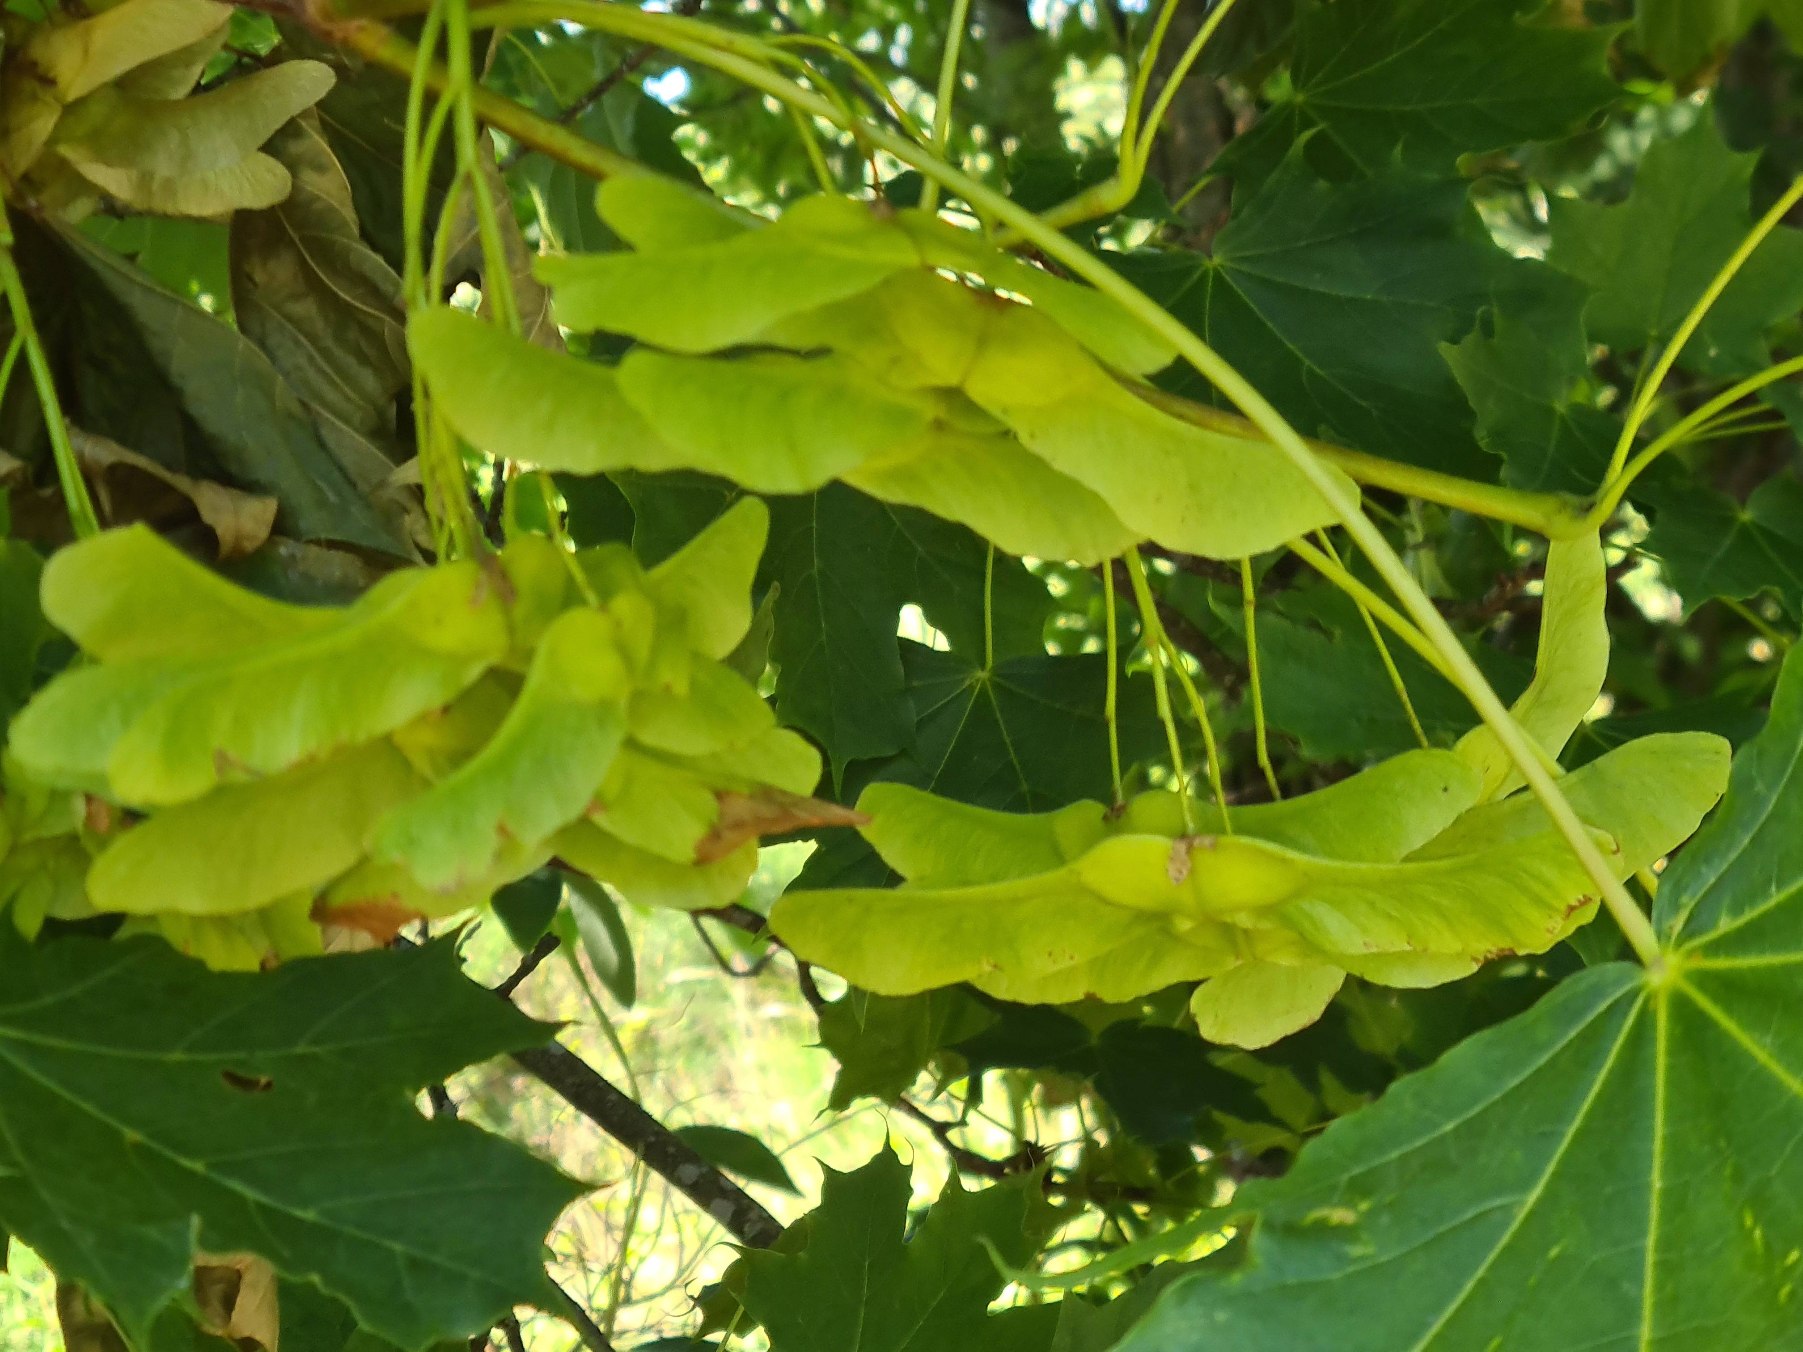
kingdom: Plantae
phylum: Tracheophyta
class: Magnoliopsida
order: Sapindales
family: Sapindaceae
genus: Acer
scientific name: Acer platanoides
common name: Spids-løn
